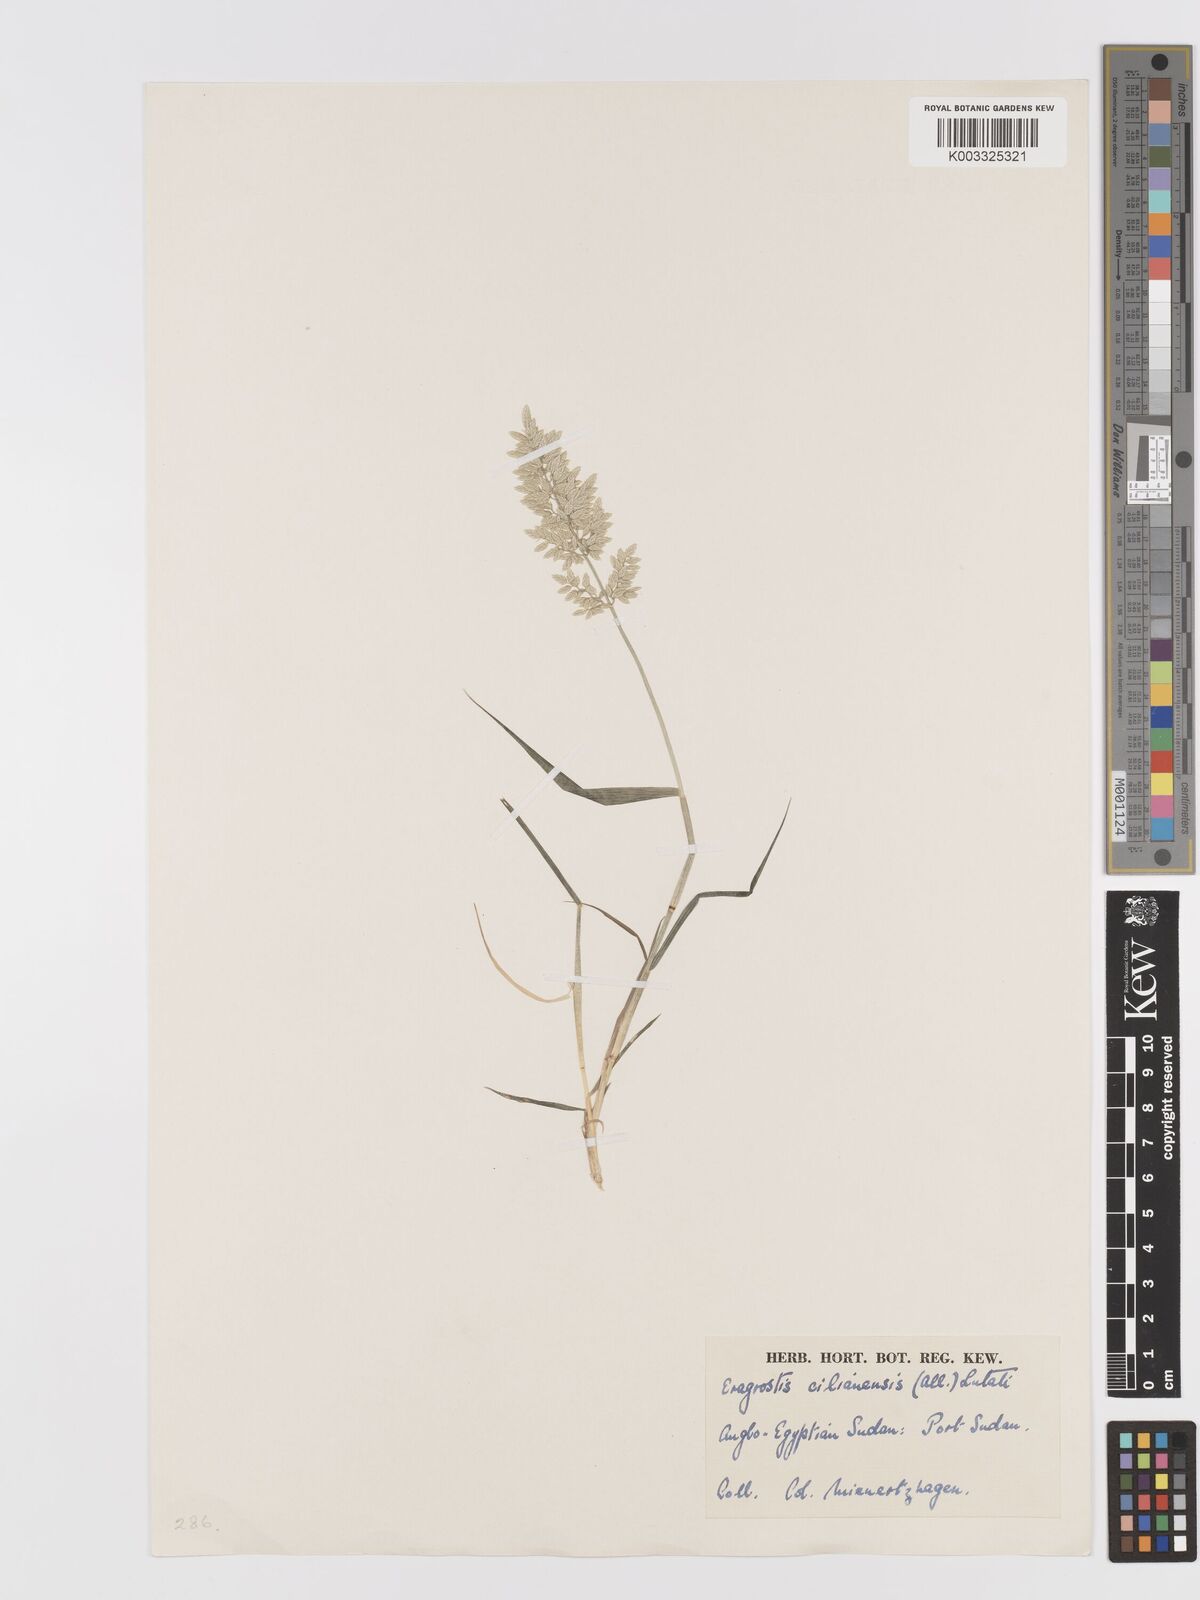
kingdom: Plantae
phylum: Tracheophyta
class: Liliopsida
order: Poales
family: Poaceae
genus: Eragrostis
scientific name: Eragrostis cilianensis
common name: Stinkgrass
